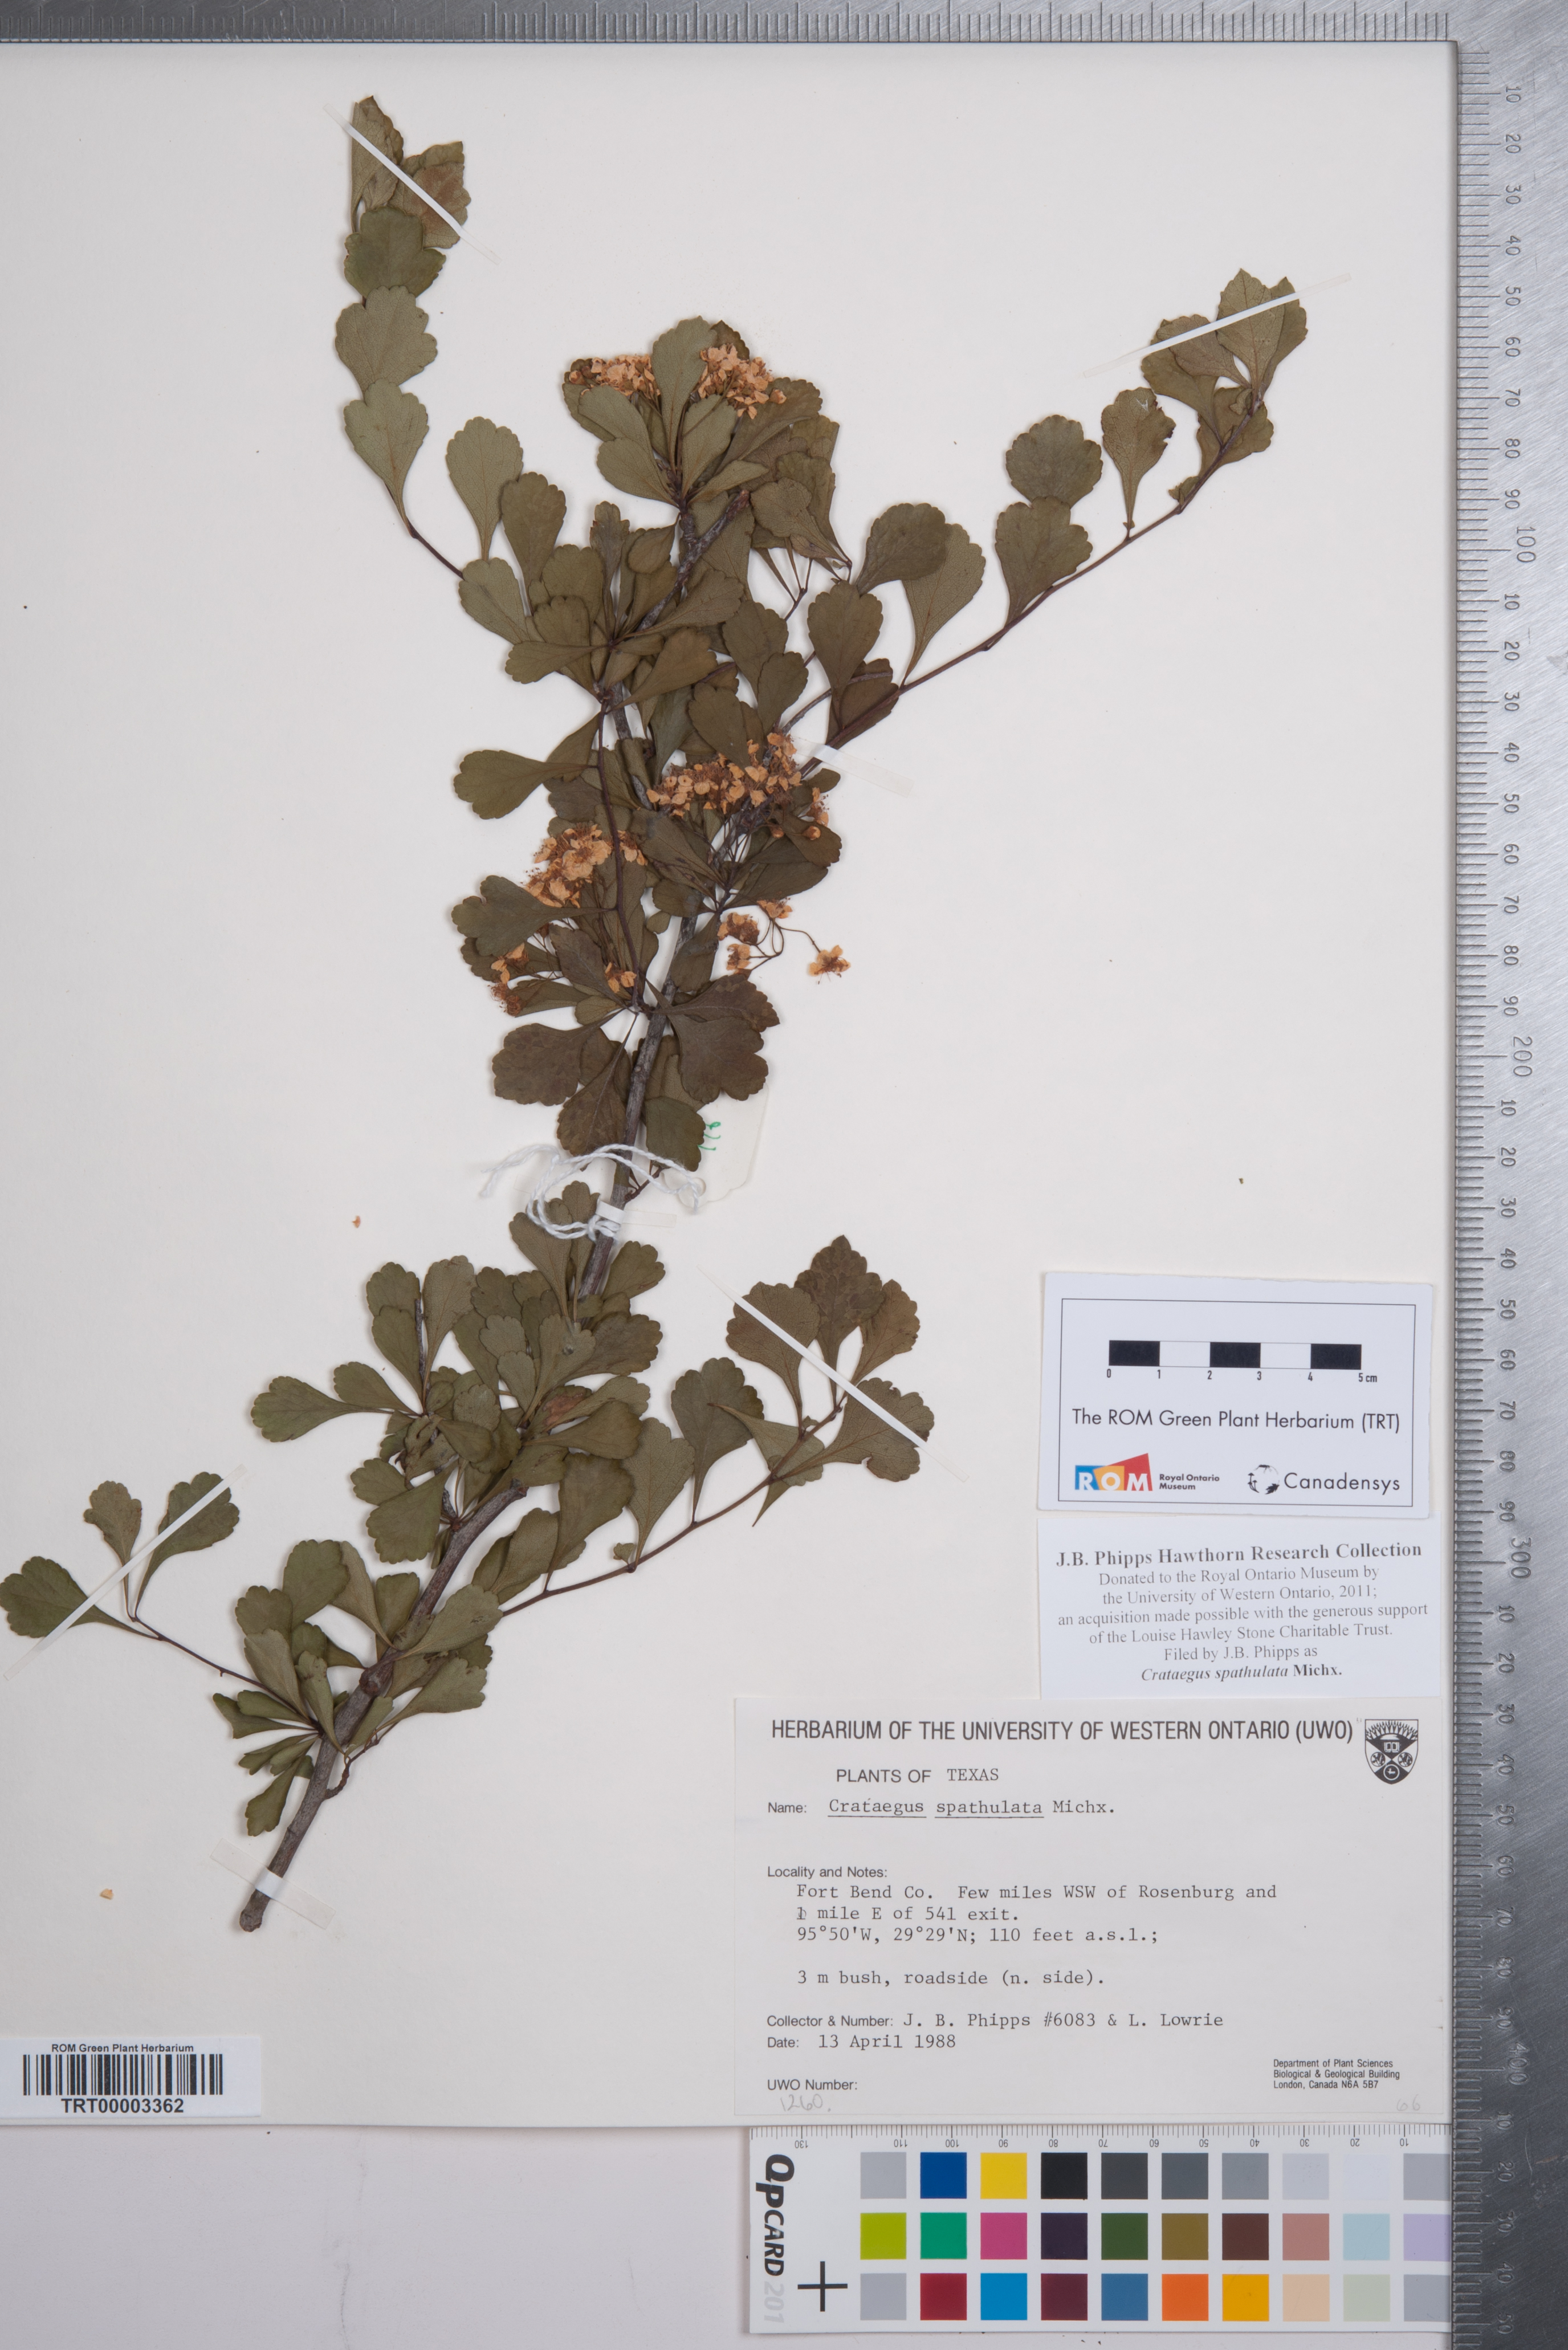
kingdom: Plantae
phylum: Tracheophyta
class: Magnoliopsida
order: Rosales
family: Rosaceae
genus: Crataegus
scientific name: Crataegus spathulata
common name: Littlehip hawthorn
